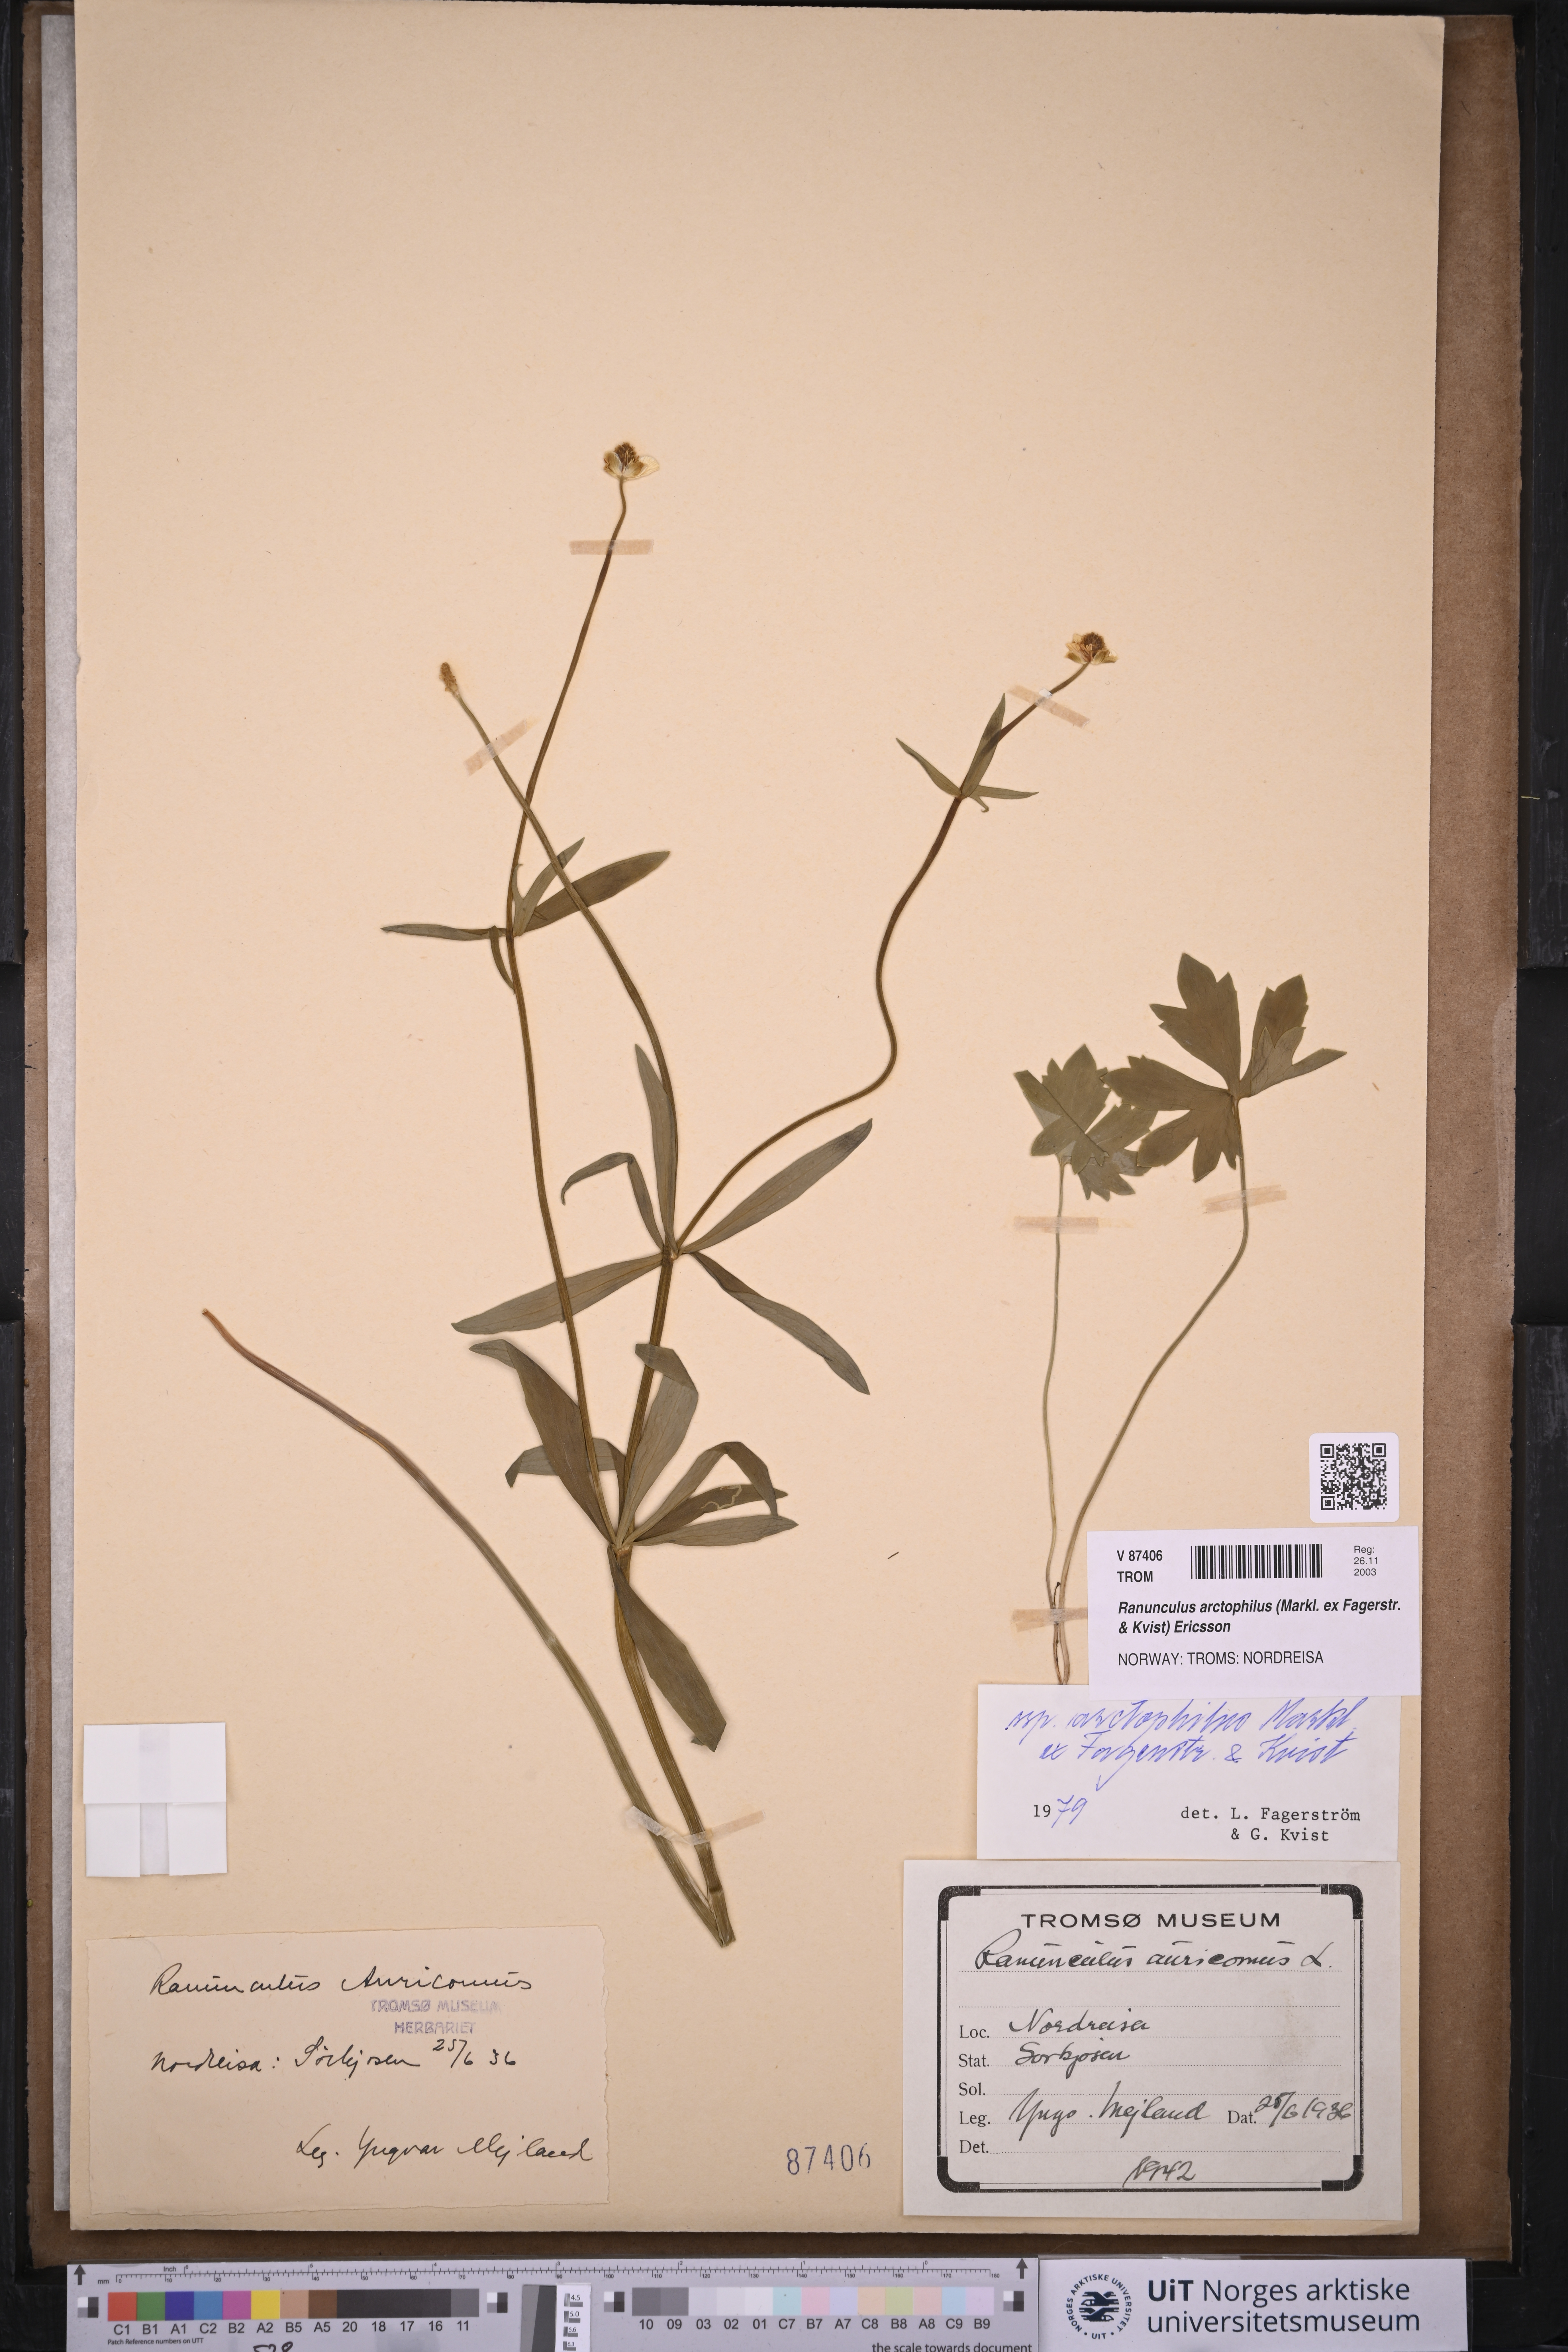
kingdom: Plantae
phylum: Tracheophyta
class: Magnoliopsida
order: Ranunculales
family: Ranunculaceae
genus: Ranunculus
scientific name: Ranunculus arctophilus
